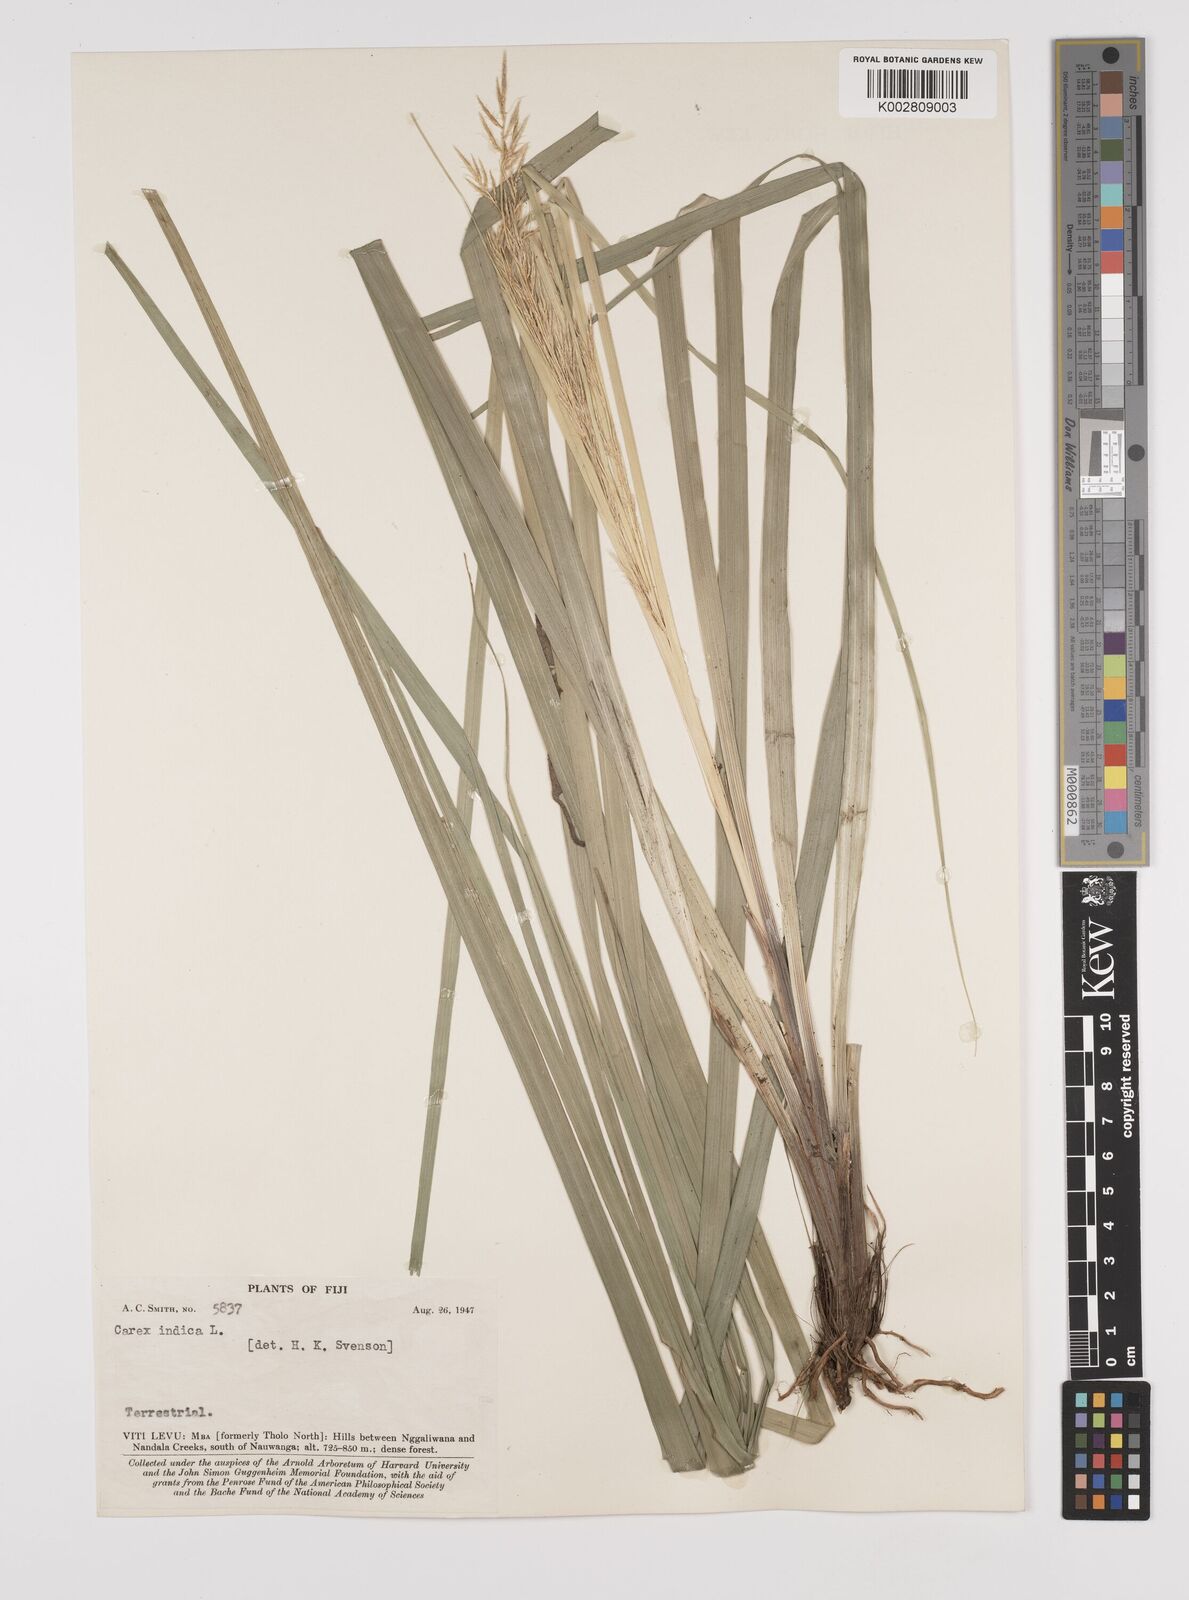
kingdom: Plantae
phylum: Tracheophyta
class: Liliopsida
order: Poales
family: Cyperaceae
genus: Carex
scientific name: Carex indica
